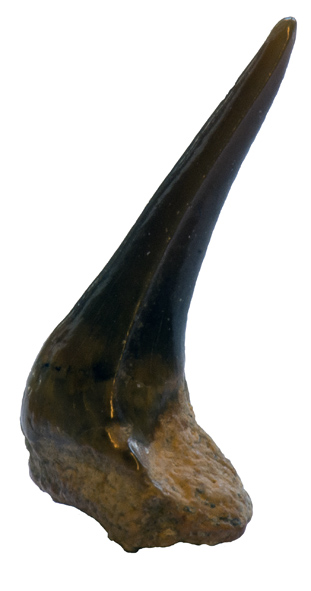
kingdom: Animalia
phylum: Chordata
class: Elasmobranchii
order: Hexanchiformes
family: Orthacodontidae
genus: Sphenodus
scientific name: Sphenodus longidens
